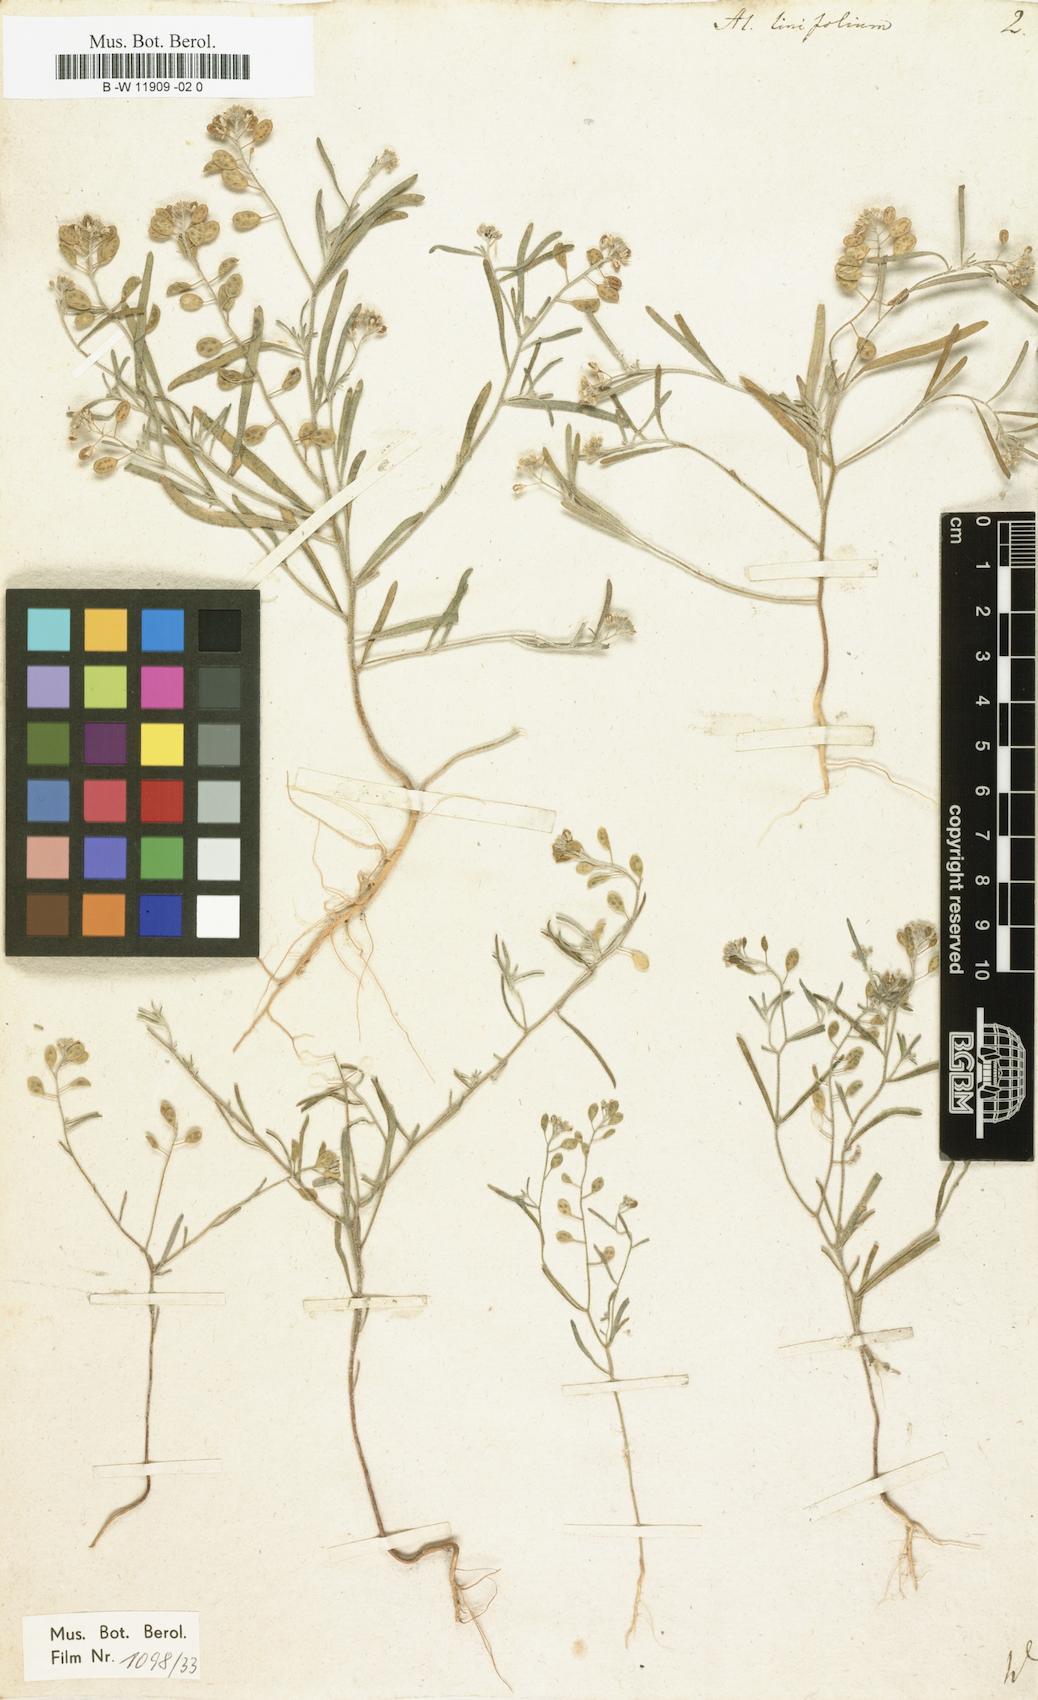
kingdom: Plantae
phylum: Tracheophyta
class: Magnoliopsida
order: Brassicales
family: Brassicaceae
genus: Meniocus
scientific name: Meniocus linifolius
